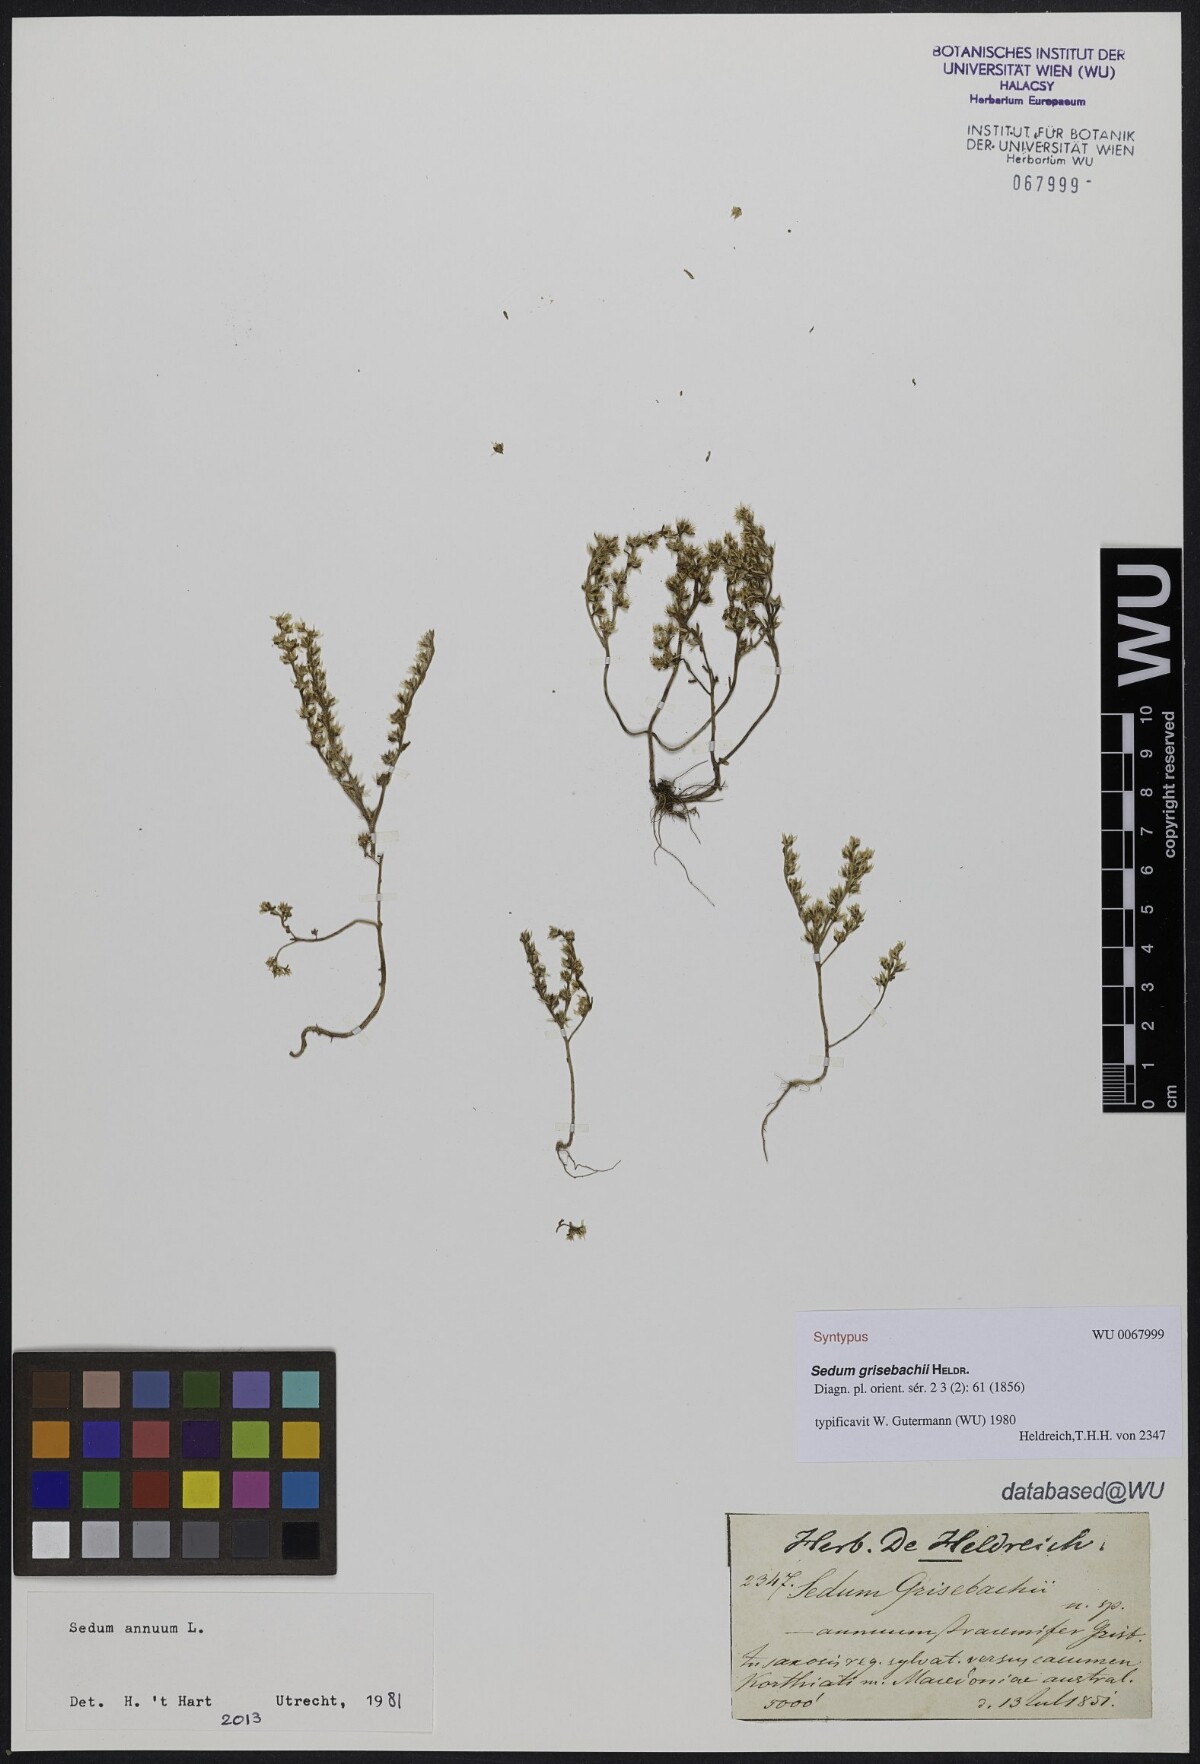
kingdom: Plantae
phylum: Tracheophyta
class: Magnoliopsida
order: Saxifragales
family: Crassulaceae
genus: Sedum
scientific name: Sedum grisebachii
